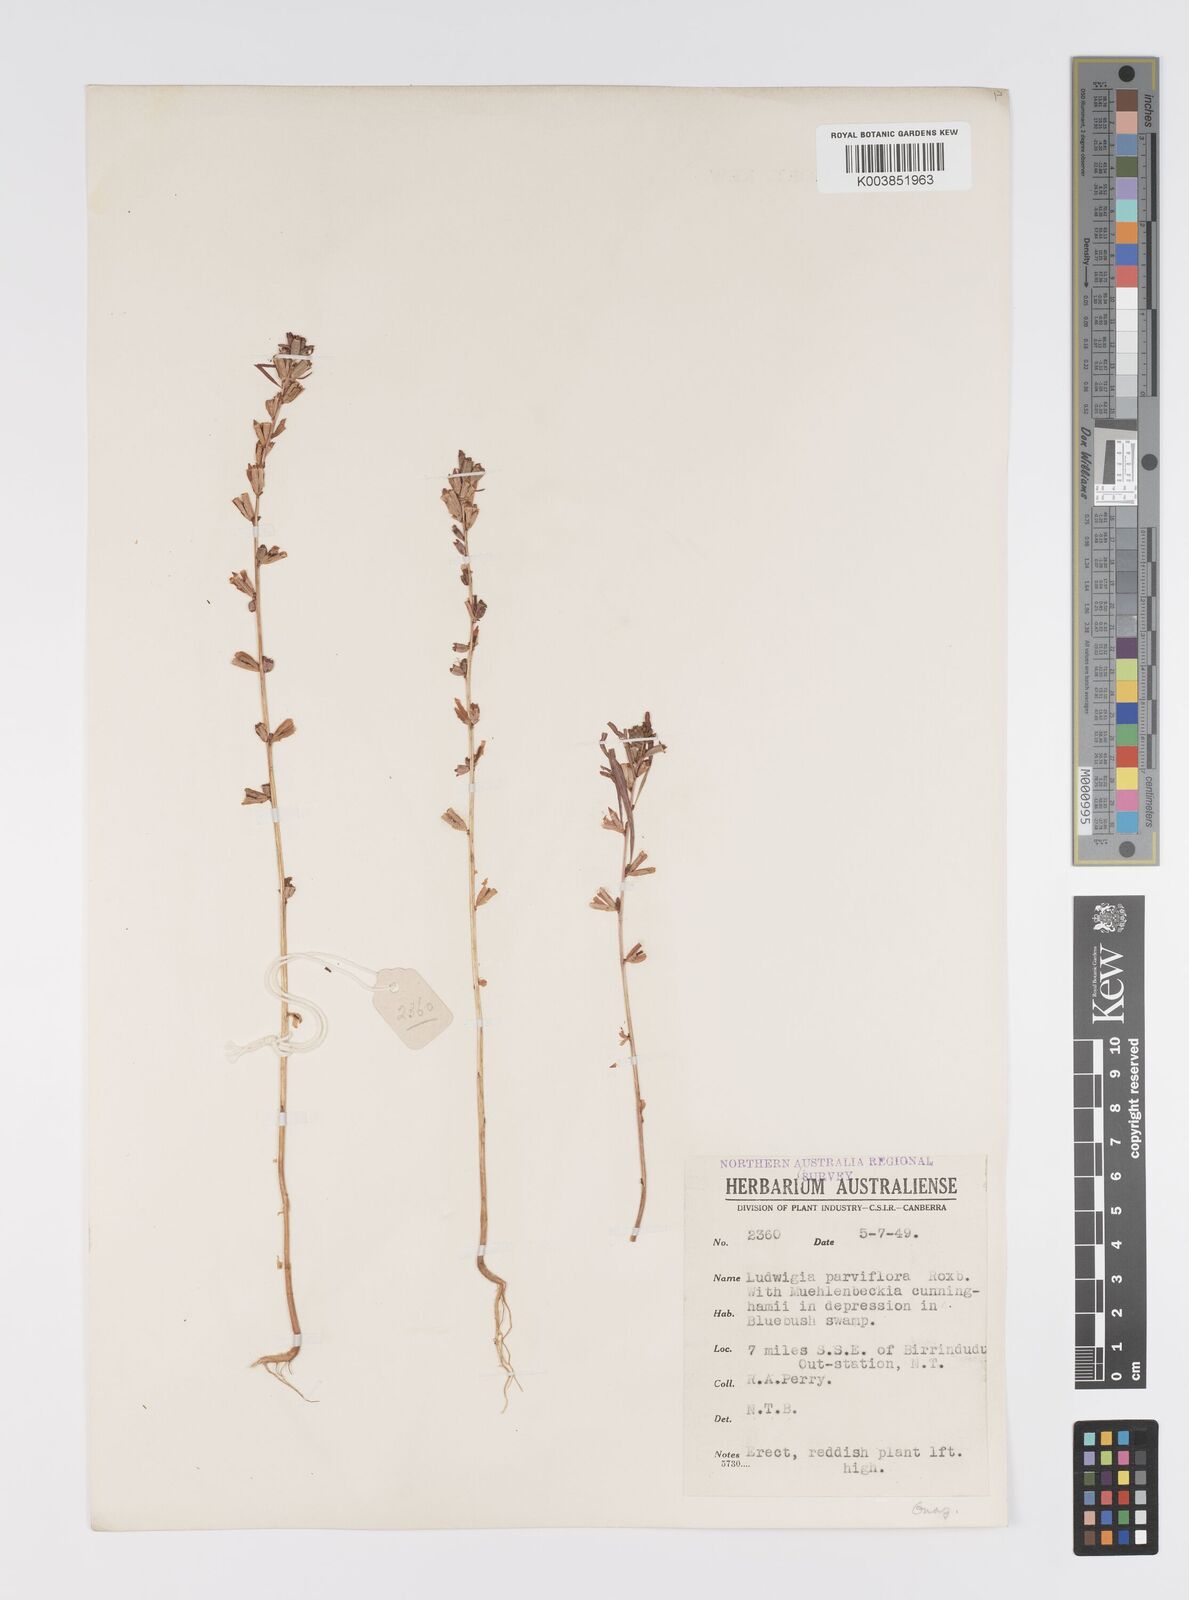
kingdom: Plantae
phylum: Tracheophyta
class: Magnoliopsida
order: Myrtales
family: Onagraceae
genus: Ludwigia
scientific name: Ludwigia perennis
